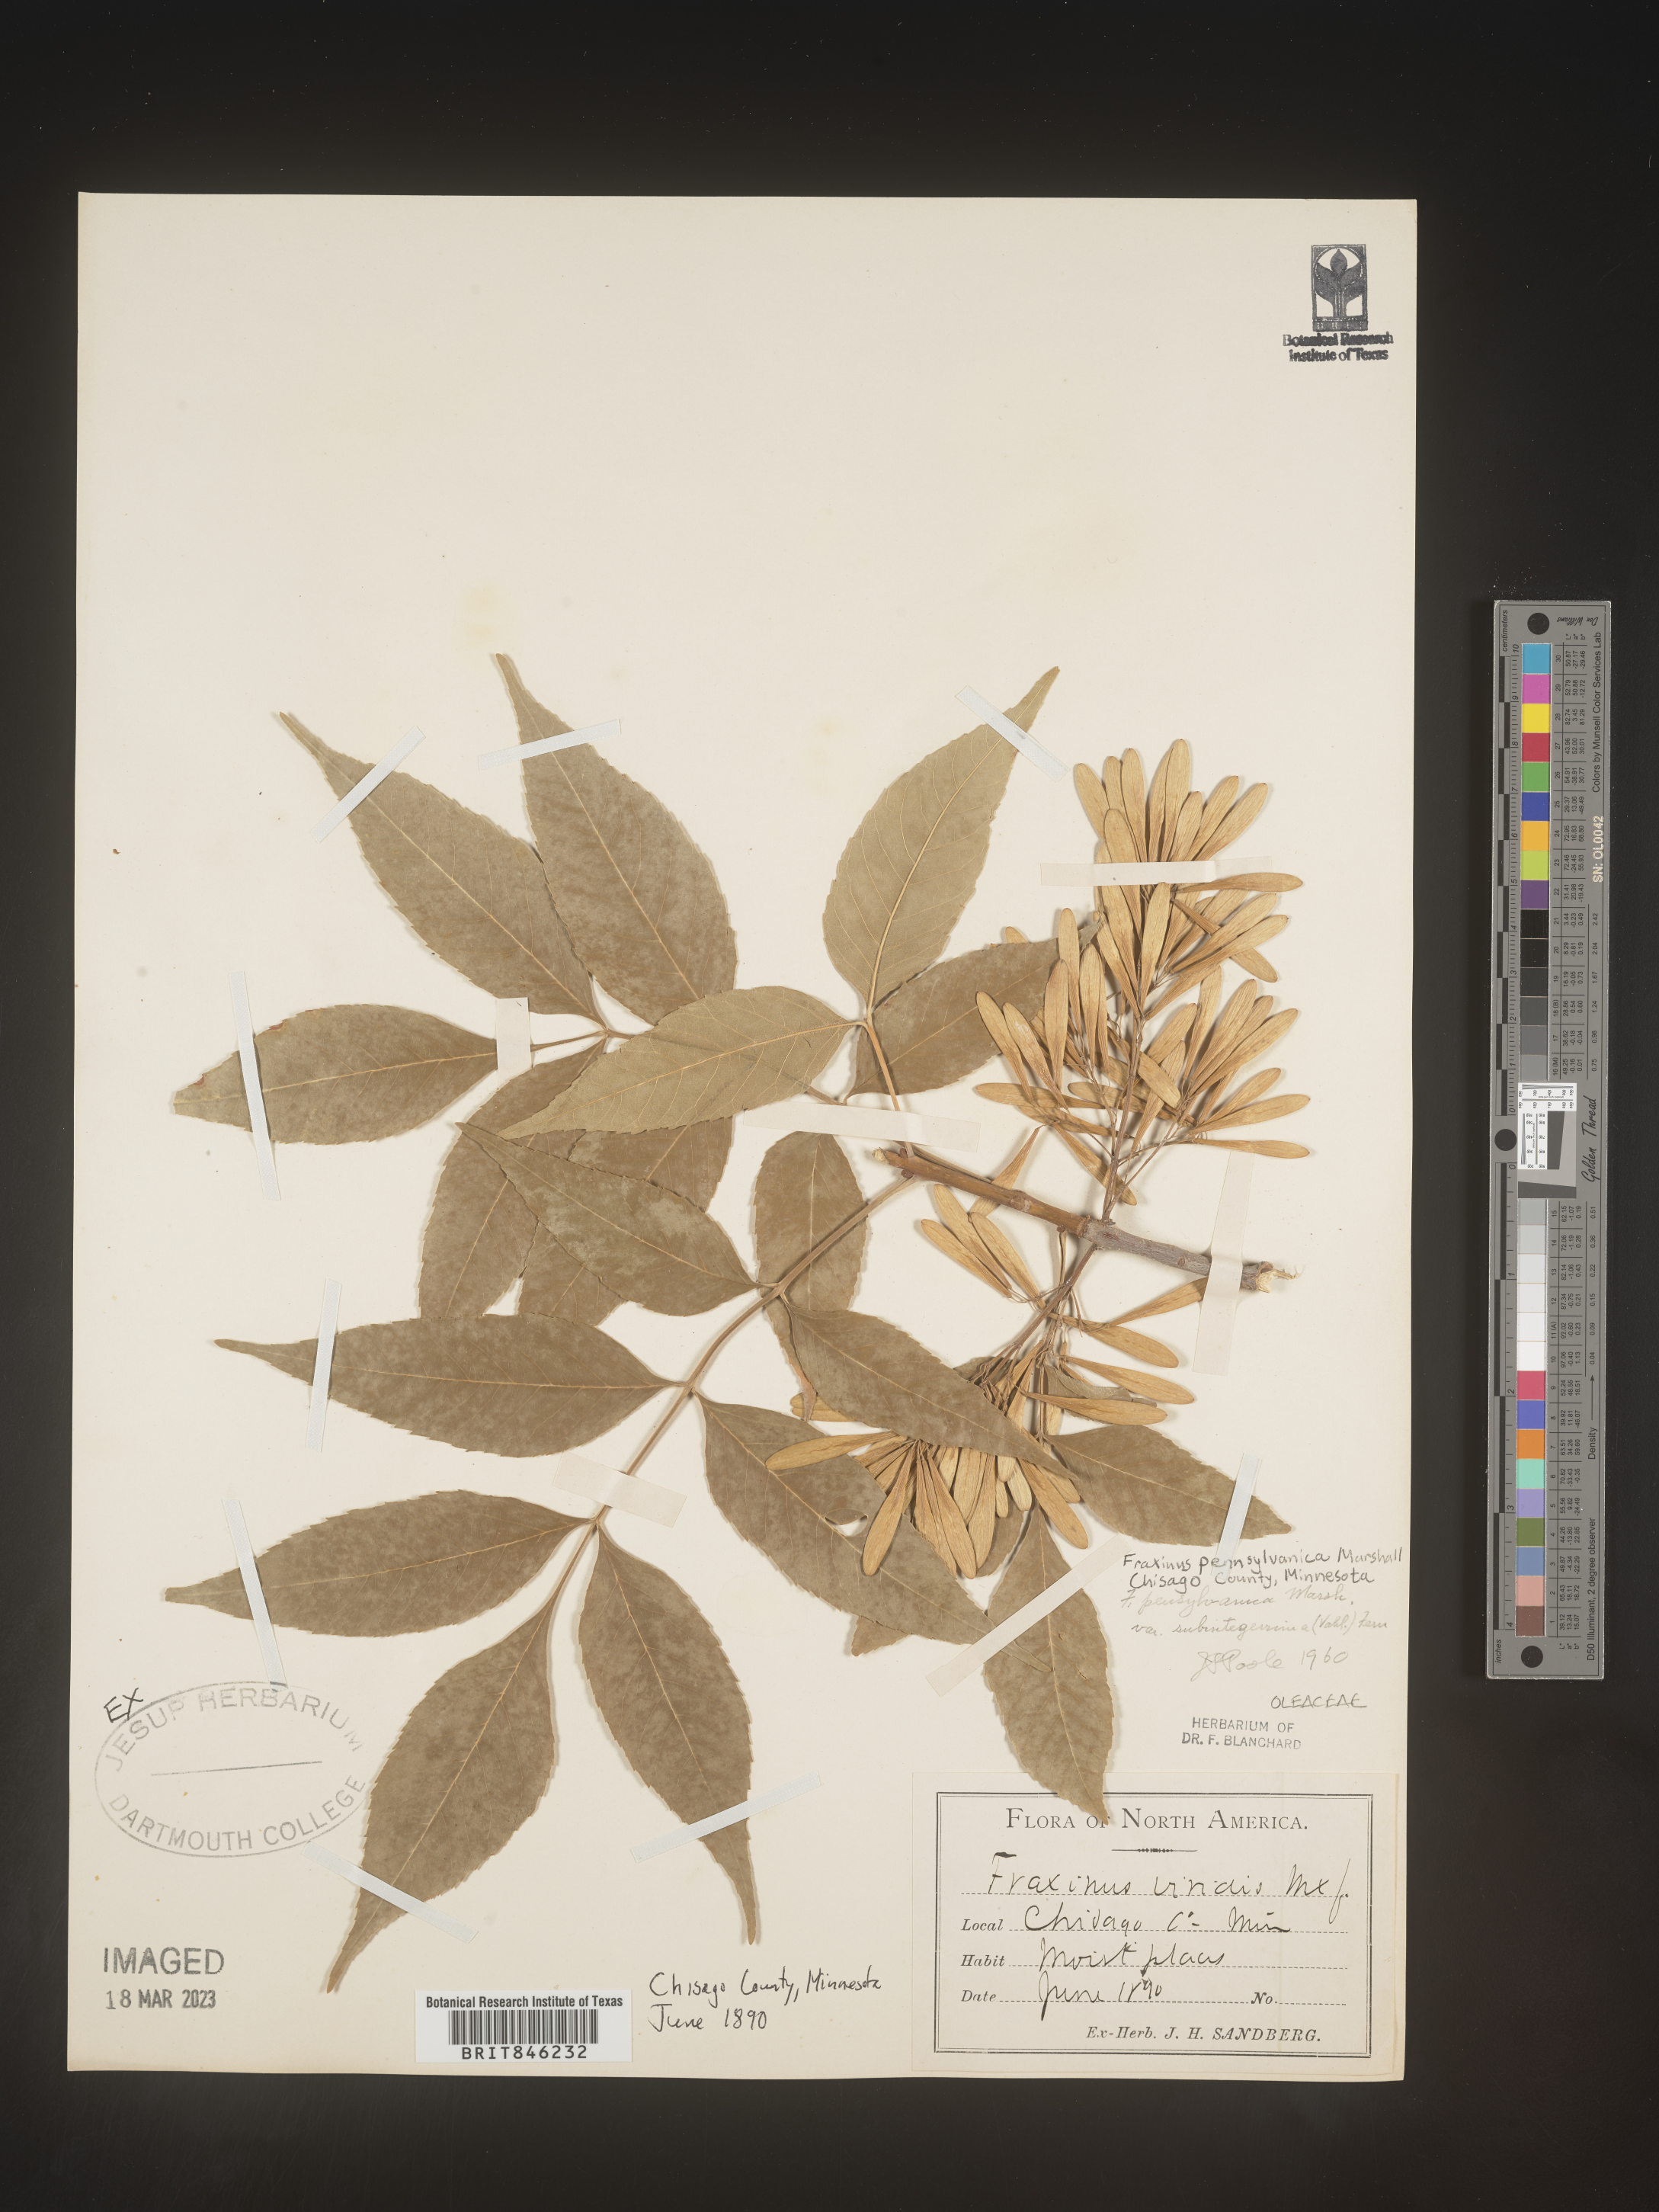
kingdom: Plantae
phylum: Tracheophyta
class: Magnoliopsida
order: Lamiales
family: Oleaceae
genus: Fraxinus
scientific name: Fraxinus pennsylvanica
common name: Green ash
